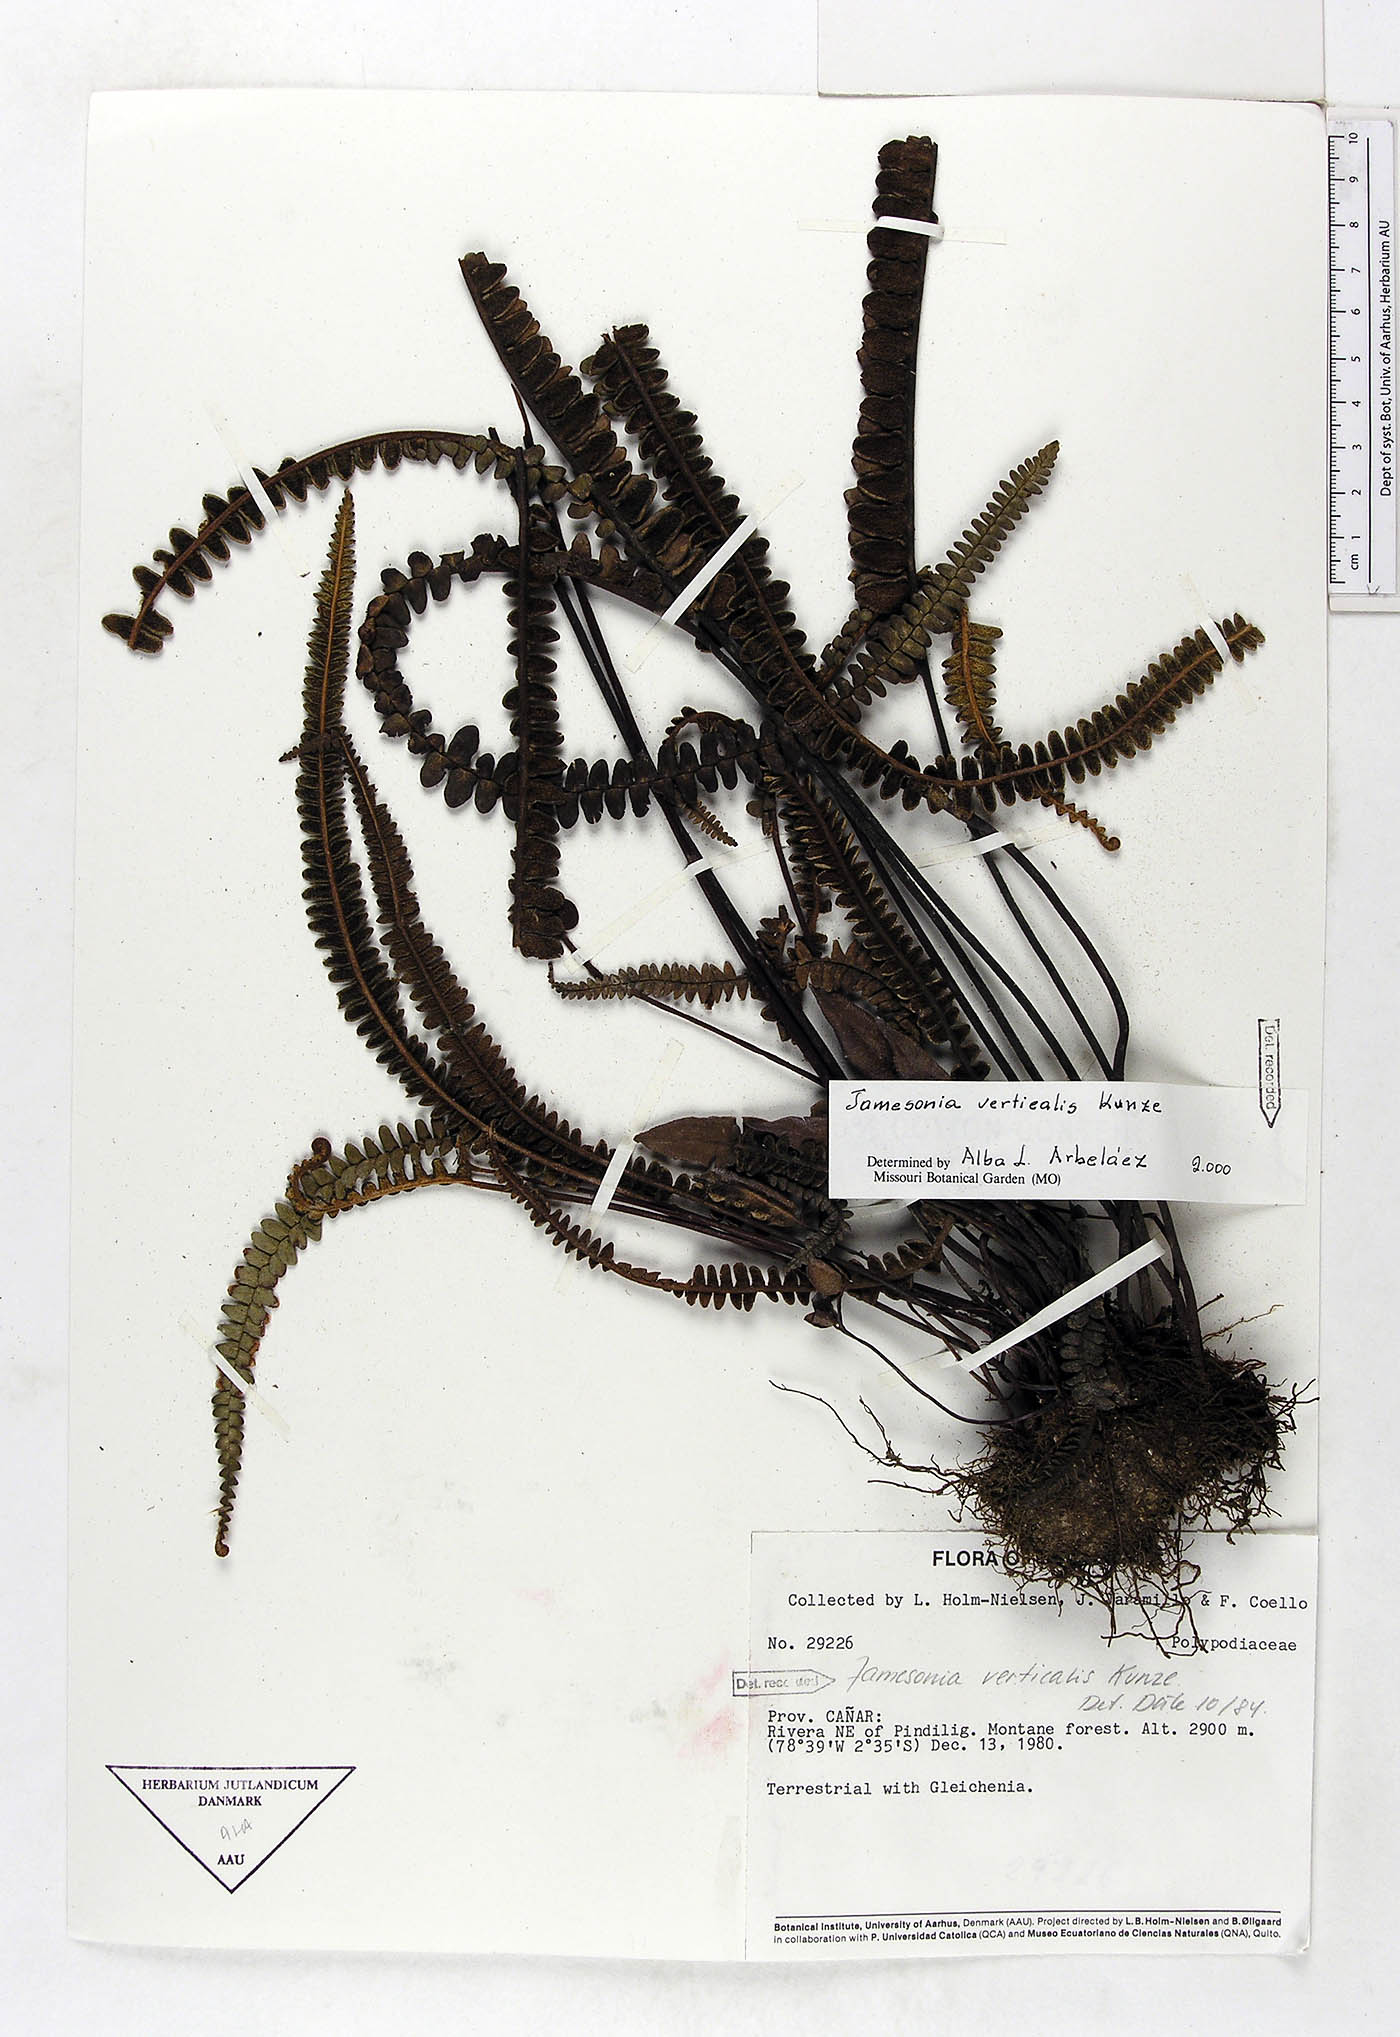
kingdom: Plantae
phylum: Tracheophyta
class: Polypodiopsida
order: Polypodiales
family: Pteridaceae
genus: Jamesonia
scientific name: Jamesonia verticalis
